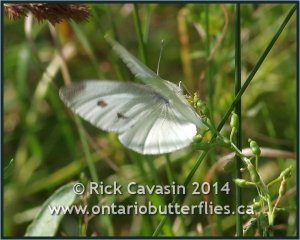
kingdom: Animalia
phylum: Arthropoda
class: Insecta
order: Lepidoptera
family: Pieridae
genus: Pieris
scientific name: Pieris rapae
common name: Cabbage White
